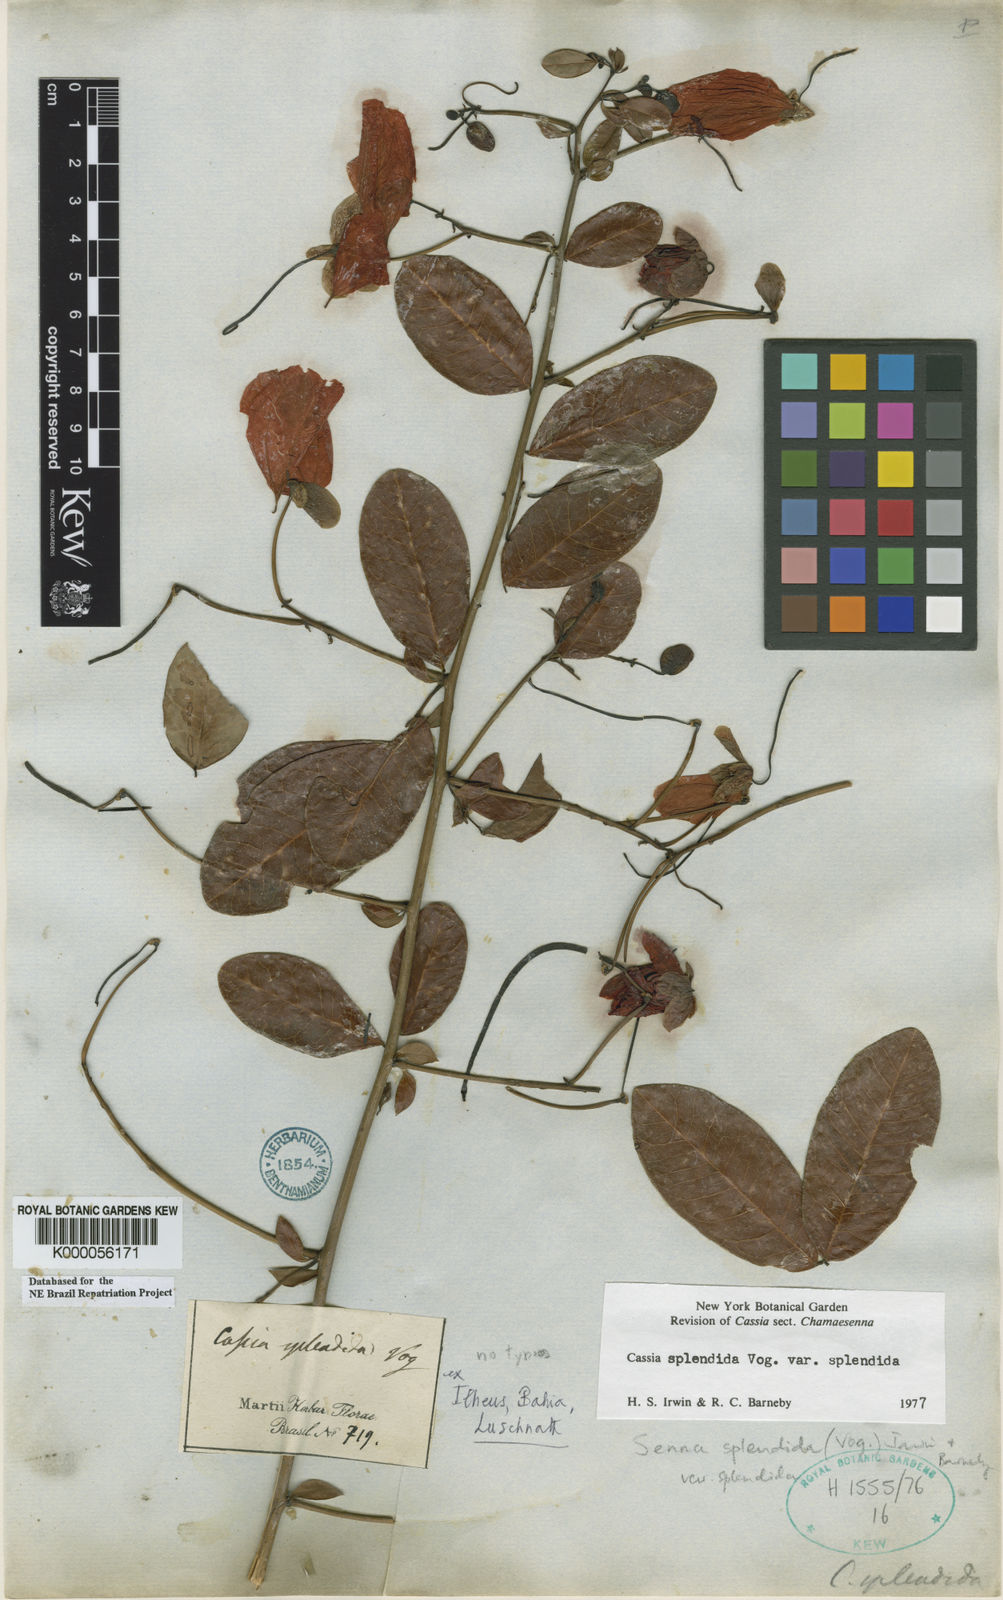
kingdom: Plantae
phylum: Tracheophyta
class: Magnoliopsida
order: Fabales
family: Fabaceae
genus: Senna
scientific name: Senna splendida
